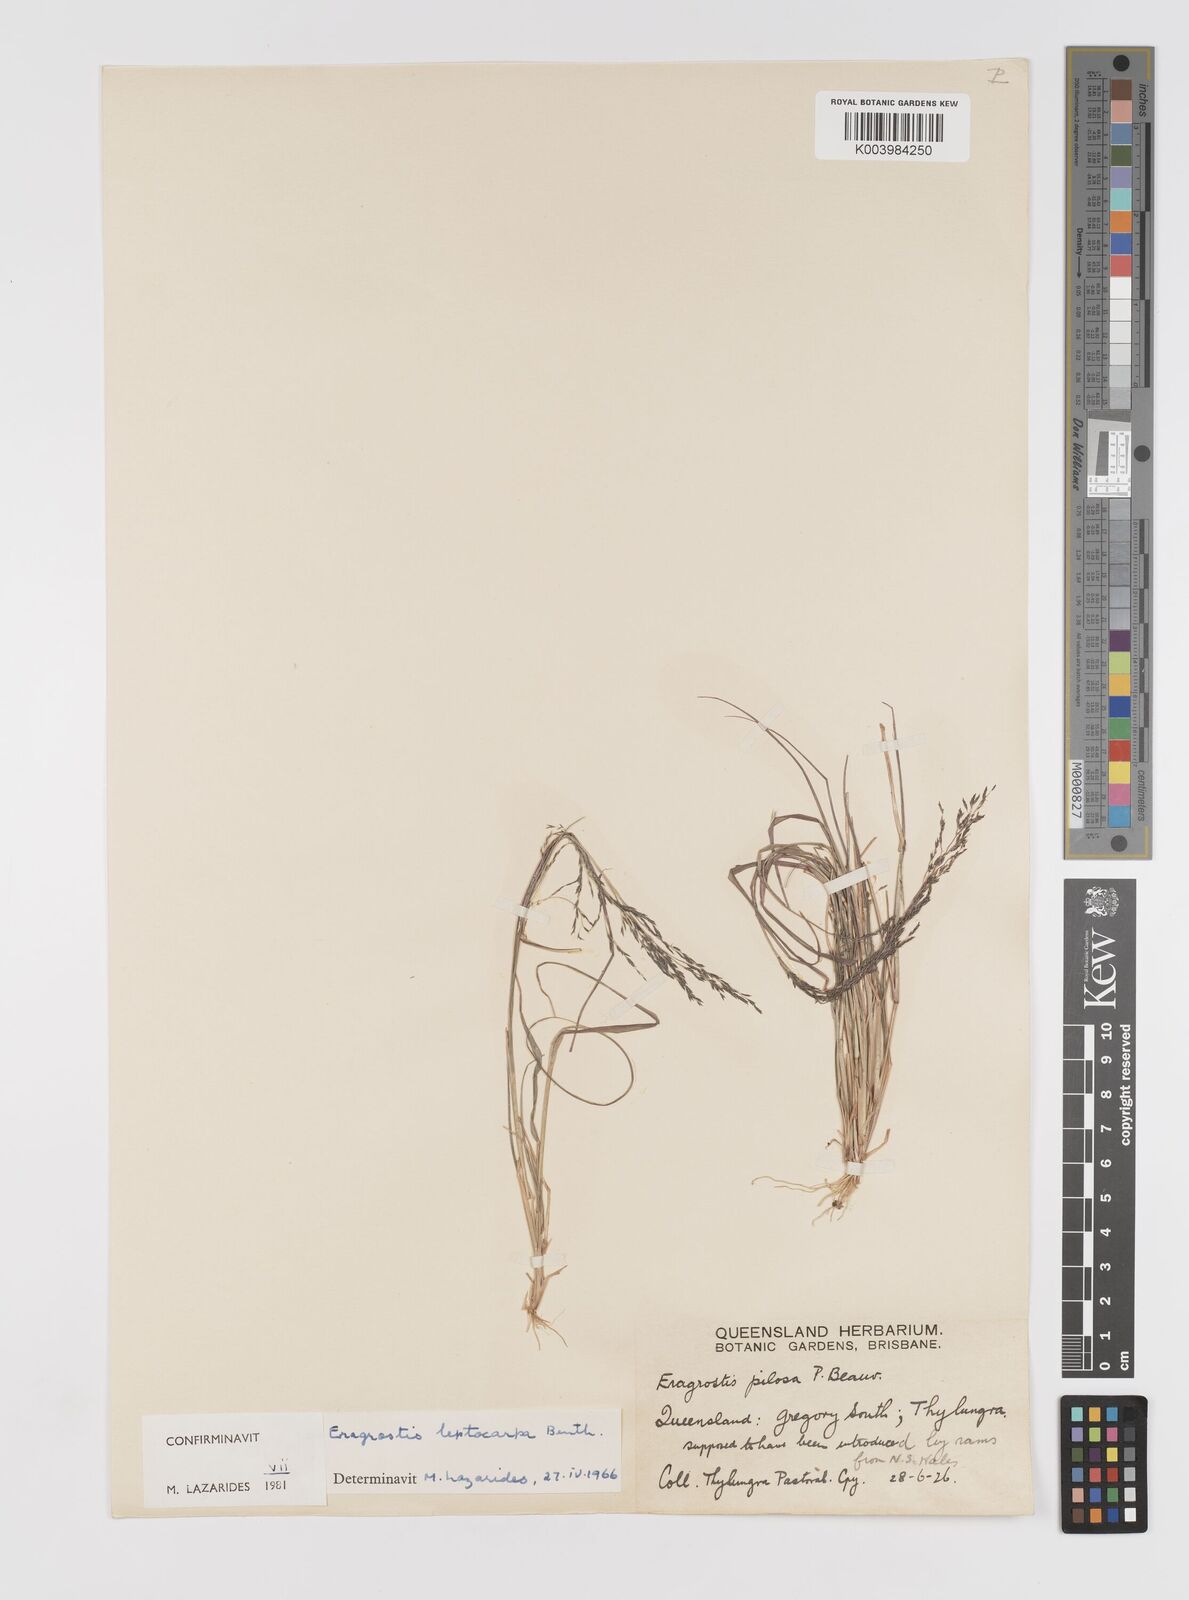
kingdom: Plantae
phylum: Tracheophyta
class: Liliopsida
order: Poales
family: Poaceae
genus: Eragrostis
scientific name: Eragrostis leptocarpa
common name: Drooping love grass
